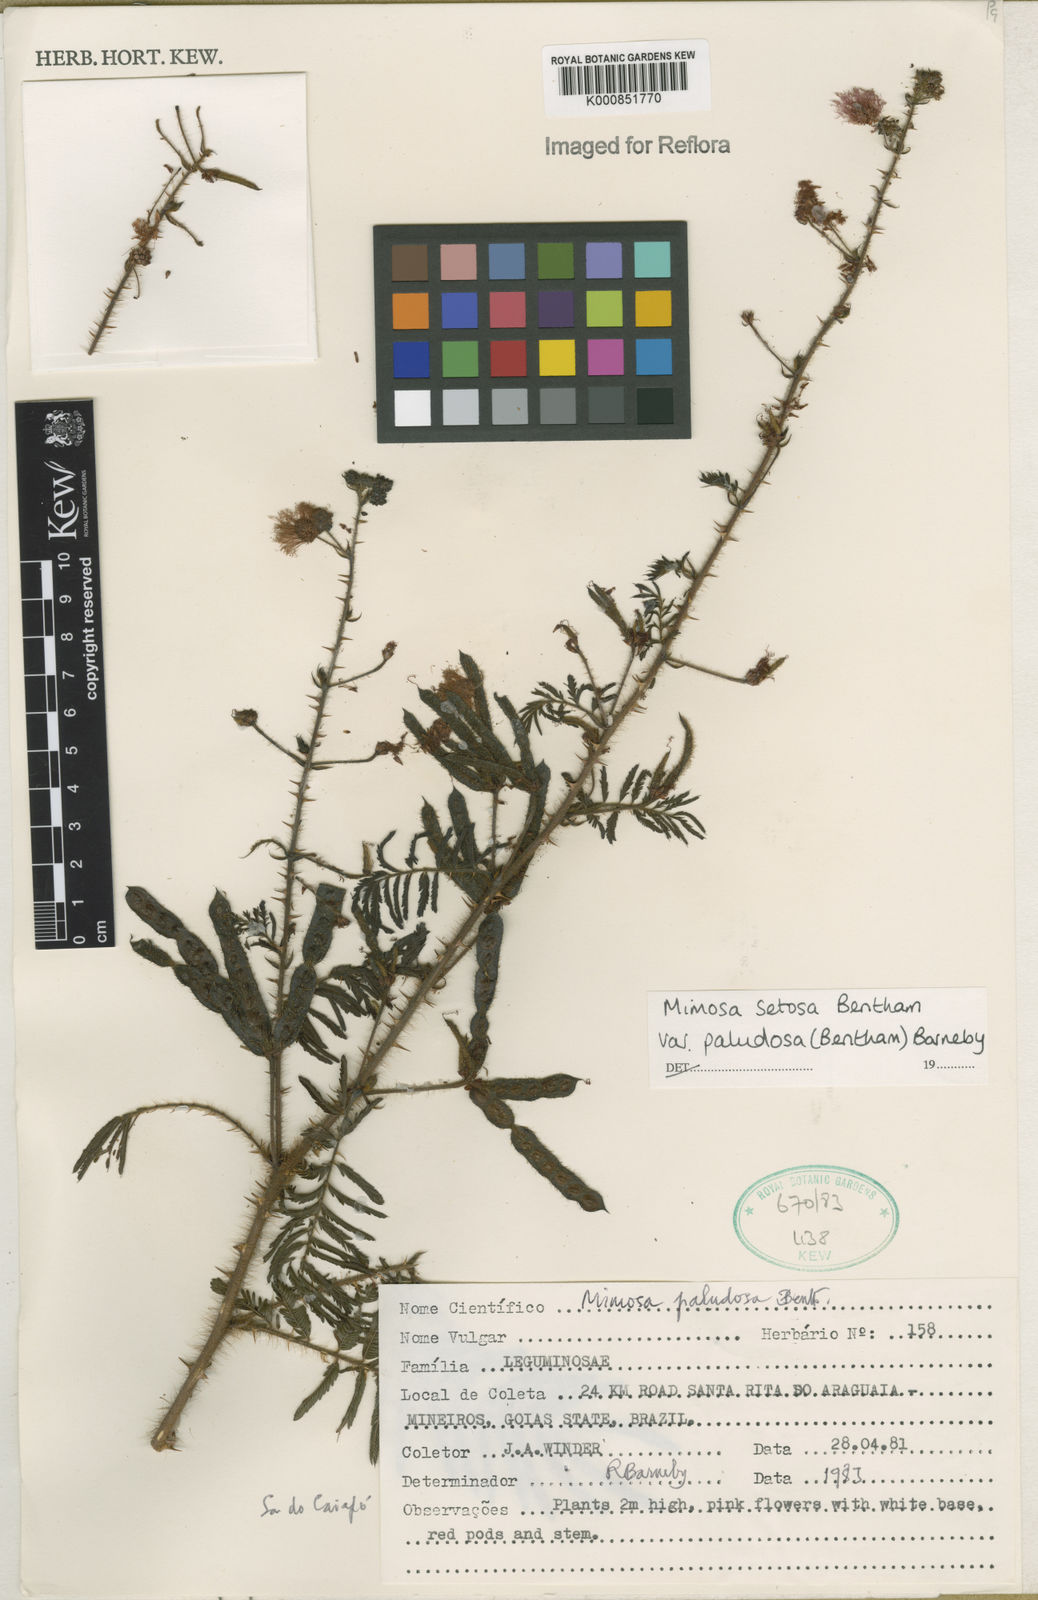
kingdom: Plantae
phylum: Tracheophyta
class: Magnoliopsida
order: Fabales
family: Fabaceae
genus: Mimosa
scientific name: Mimosa paludosa
